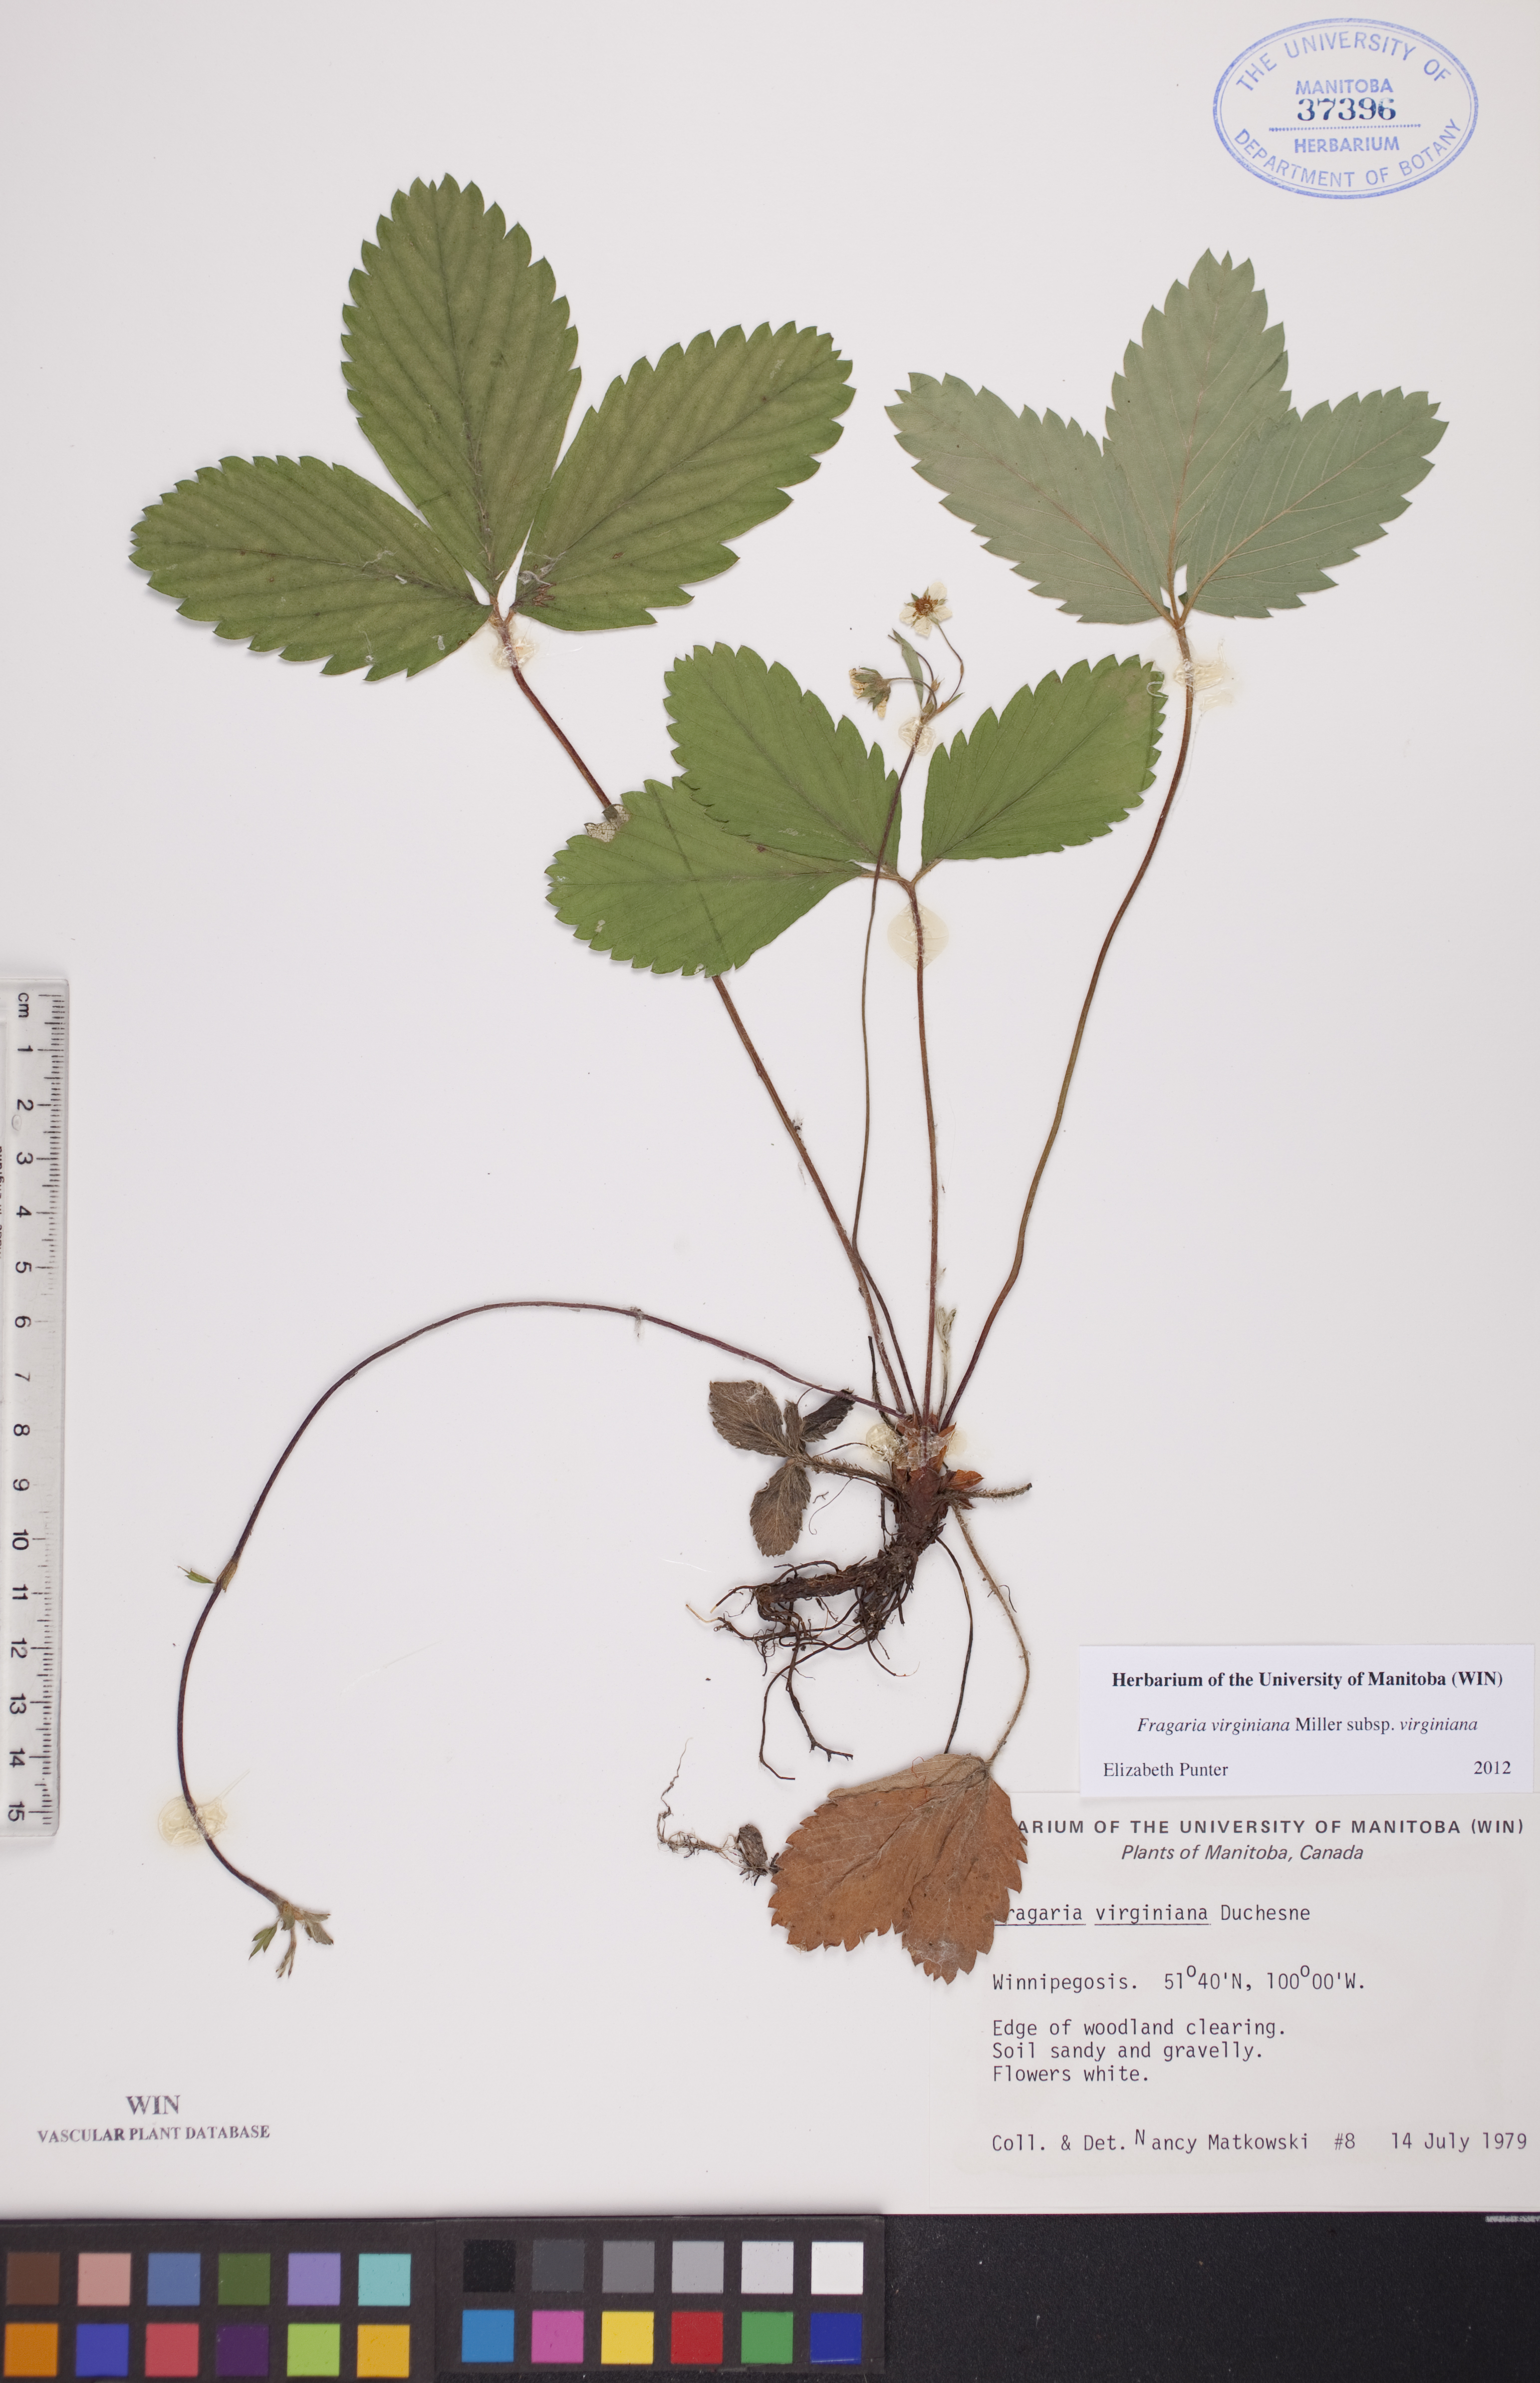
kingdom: Plantae
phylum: Tracheophyta
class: Magnoliopsida
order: Rosales
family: Rosaceae
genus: Fragaria
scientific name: Fragaria virginiana
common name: Thickleaved wild strawberry
